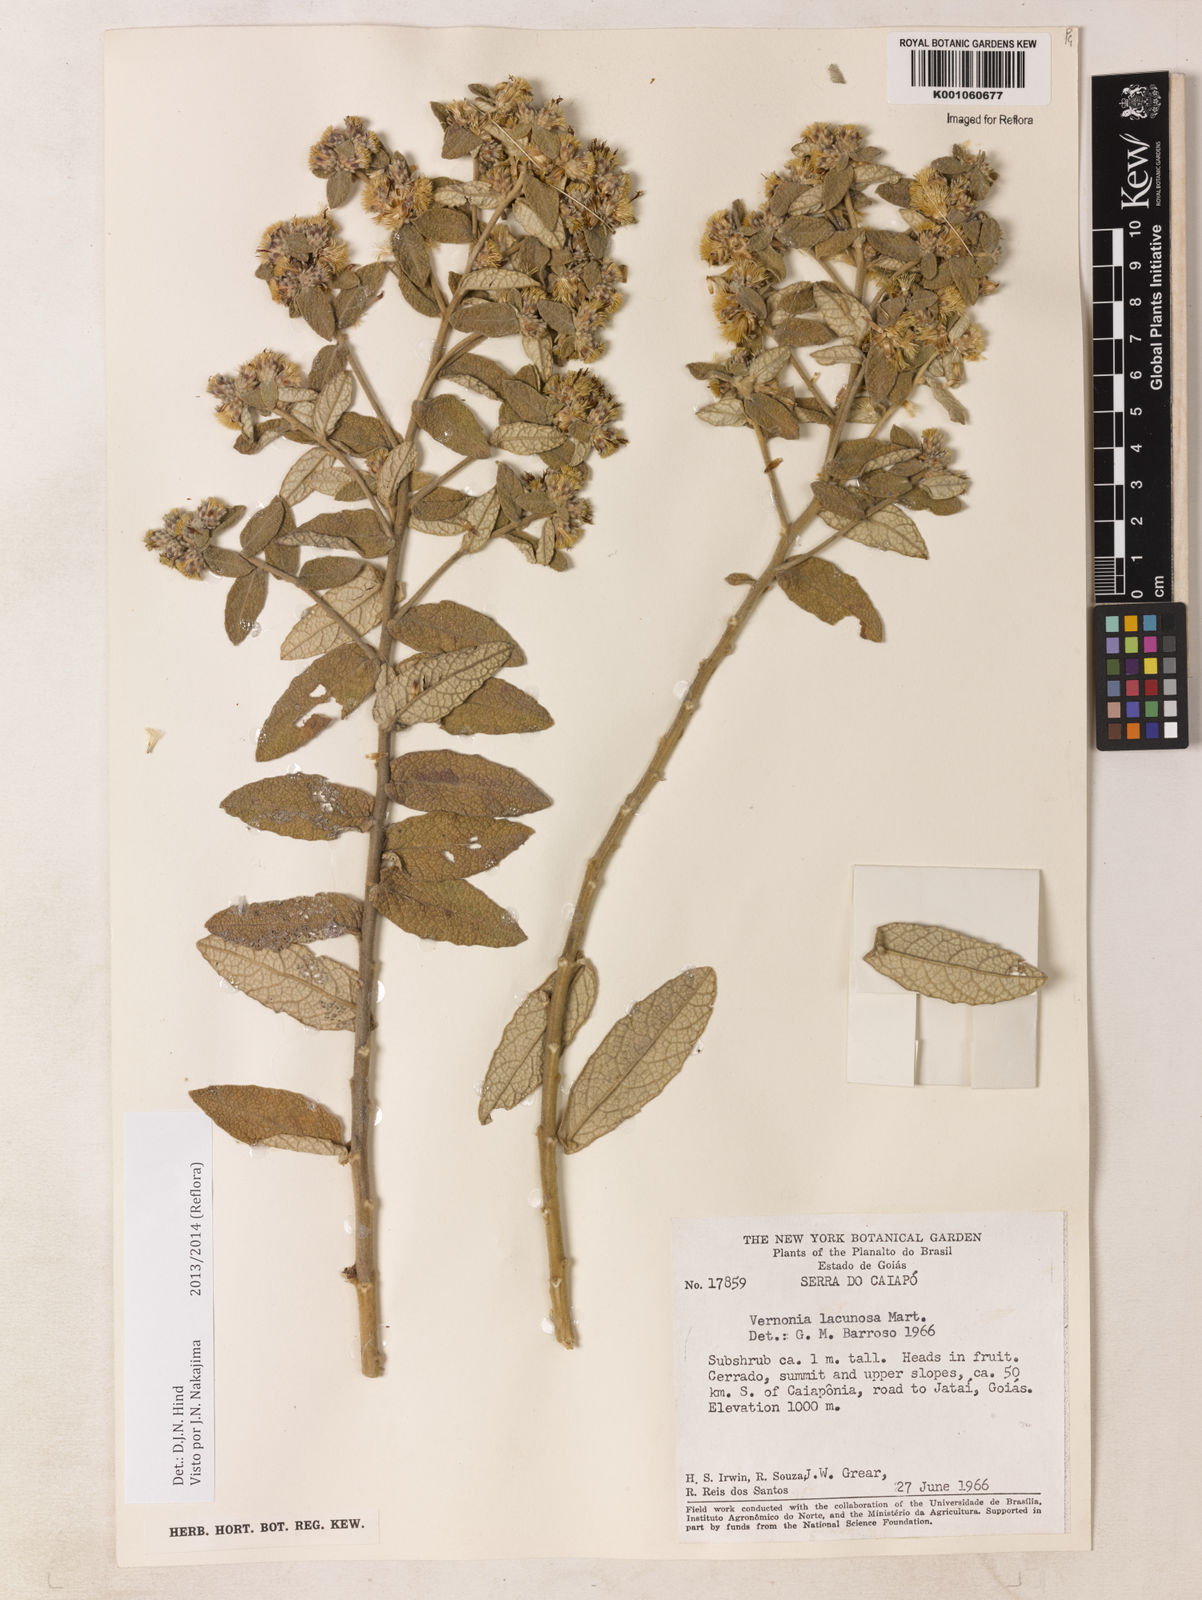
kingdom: Plantae
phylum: Tracheophyta
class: Magnoliopsida
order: Asterales
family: Asteraceae
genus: Lessingianthus
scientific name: Lessingianthus lacunosus
